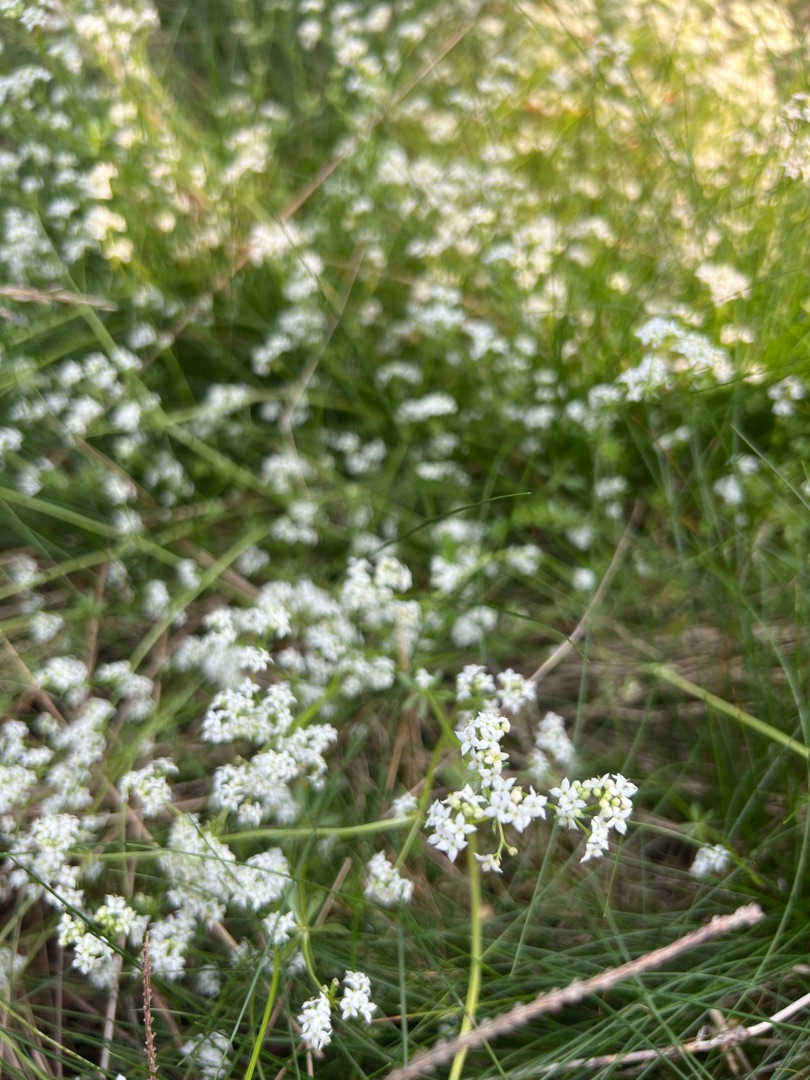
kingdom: Plantae
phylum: Tracheophyta
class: Magnoliopsida
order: Gentianales
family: Rubiaceae
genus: Galium
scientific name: Galium saxatile
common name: Lyng-snerre
